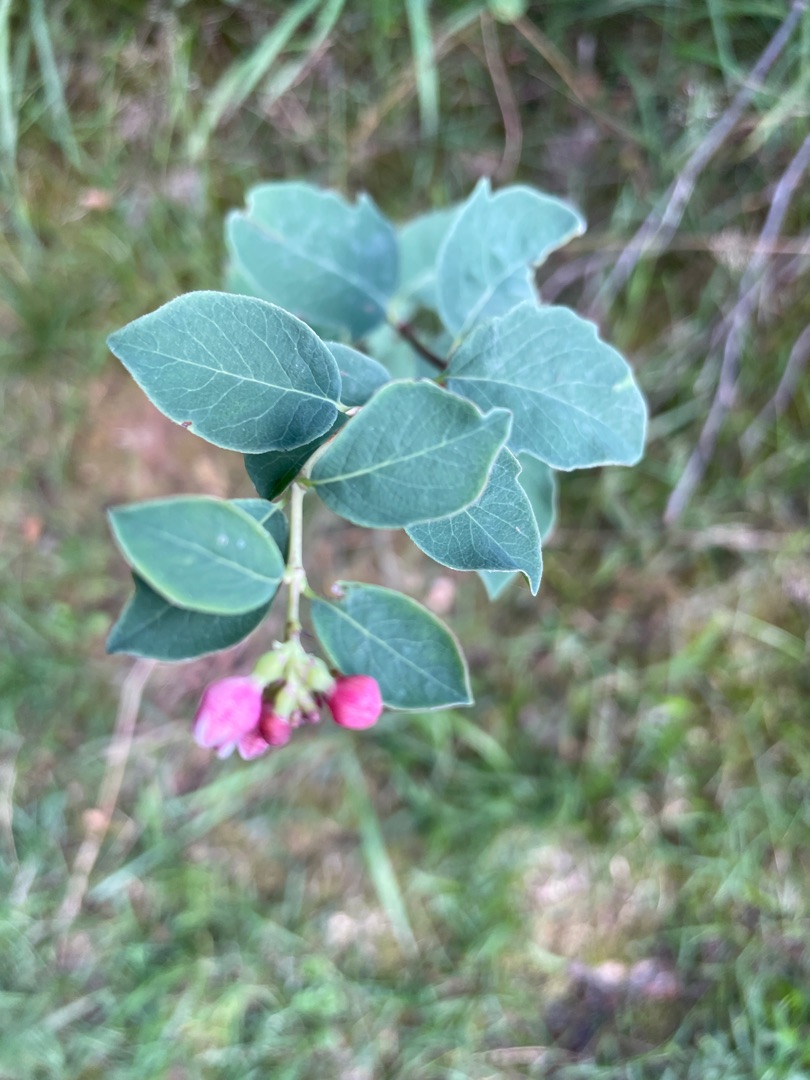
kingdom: Plantae
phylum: Tracheophyta
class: Magnoliopsida
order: Dipsacales
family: Caprifoliaceae
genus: Symphoricarpos
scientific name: Symphoricarpos albus
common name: Almindelig snebær
